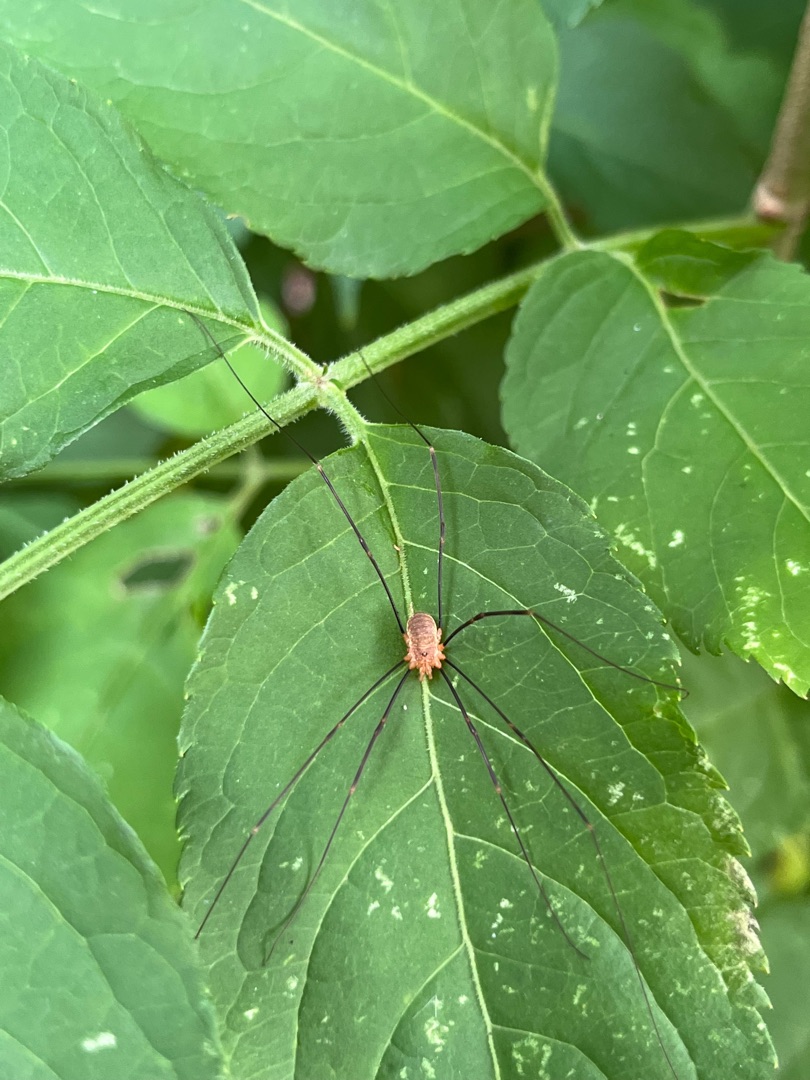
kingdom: Animalia
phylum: Arthropoda
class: Arachnida
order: Opiliones
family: Phalangiidae
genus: Opilio
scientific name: Opilio canestrinii
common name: Orange vægmejer
